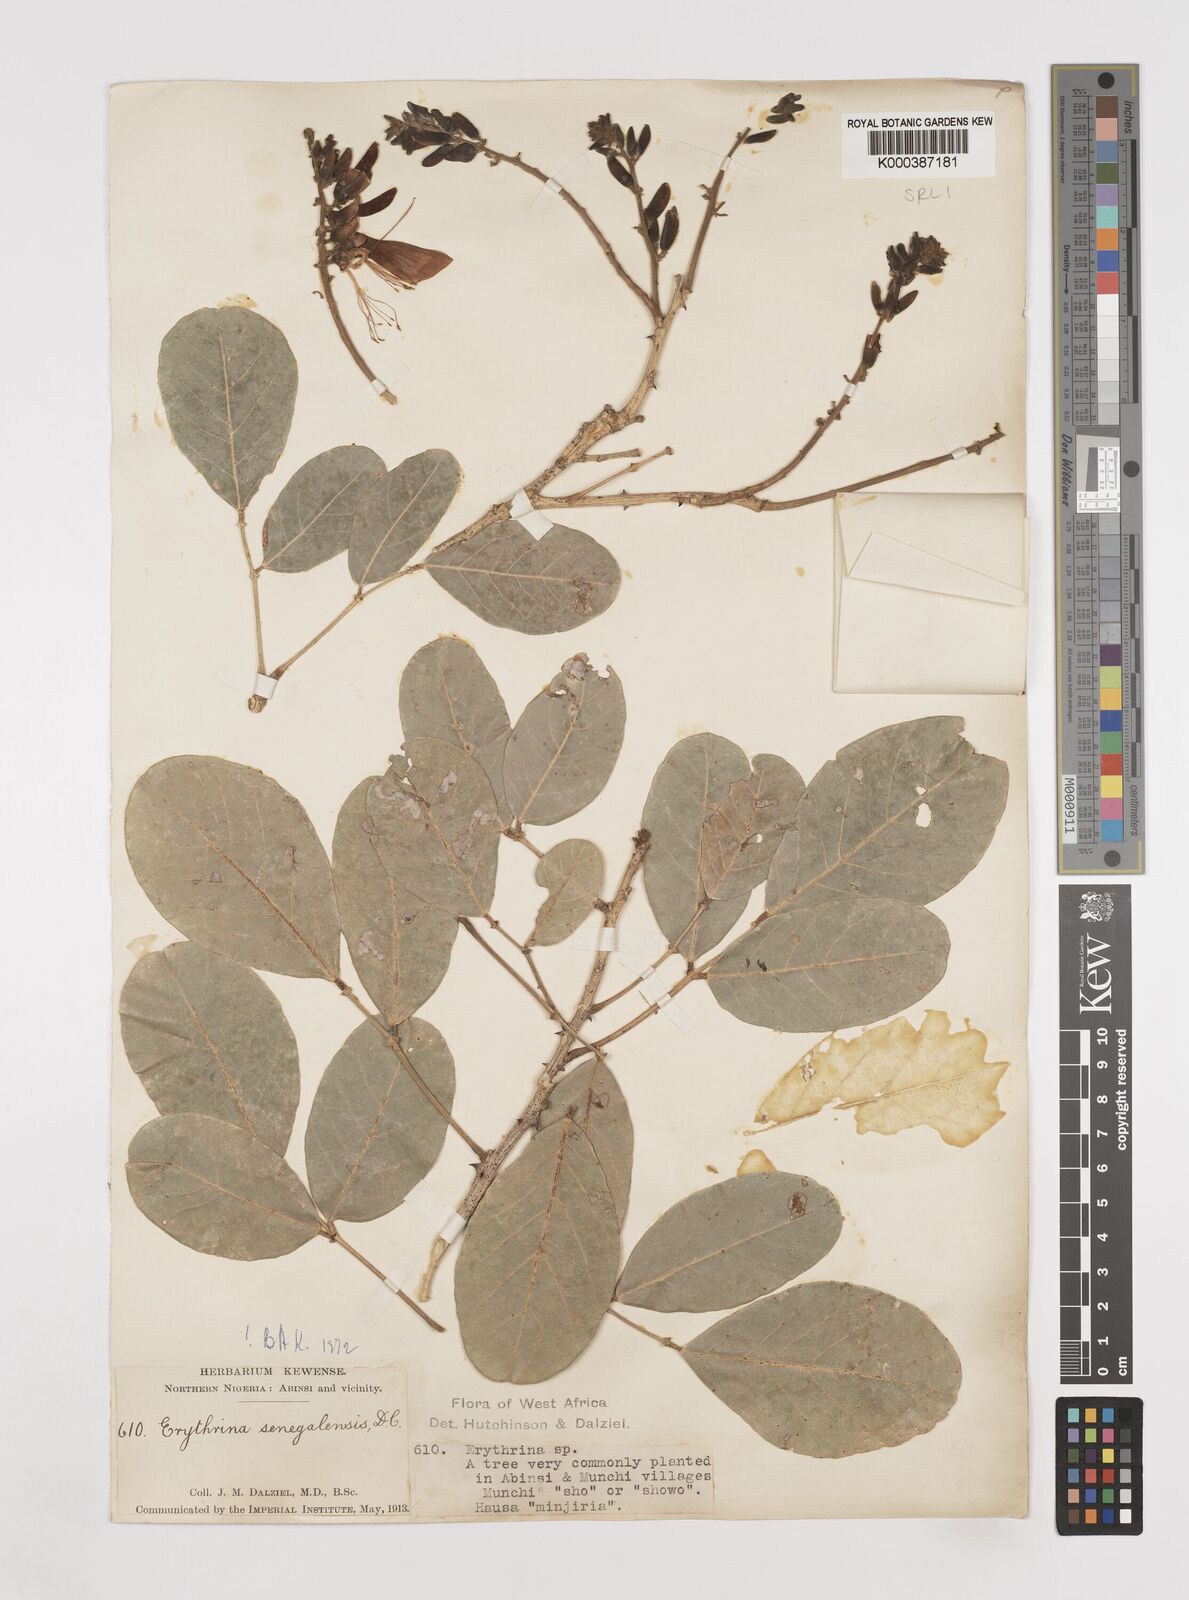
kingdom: Plantae
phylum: Tracheophyta
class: Magnoliopsida
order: Fabales
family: Fabaceae
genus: Erythrina
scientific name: Erythrina senegalensis
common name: Senegal coraltree
